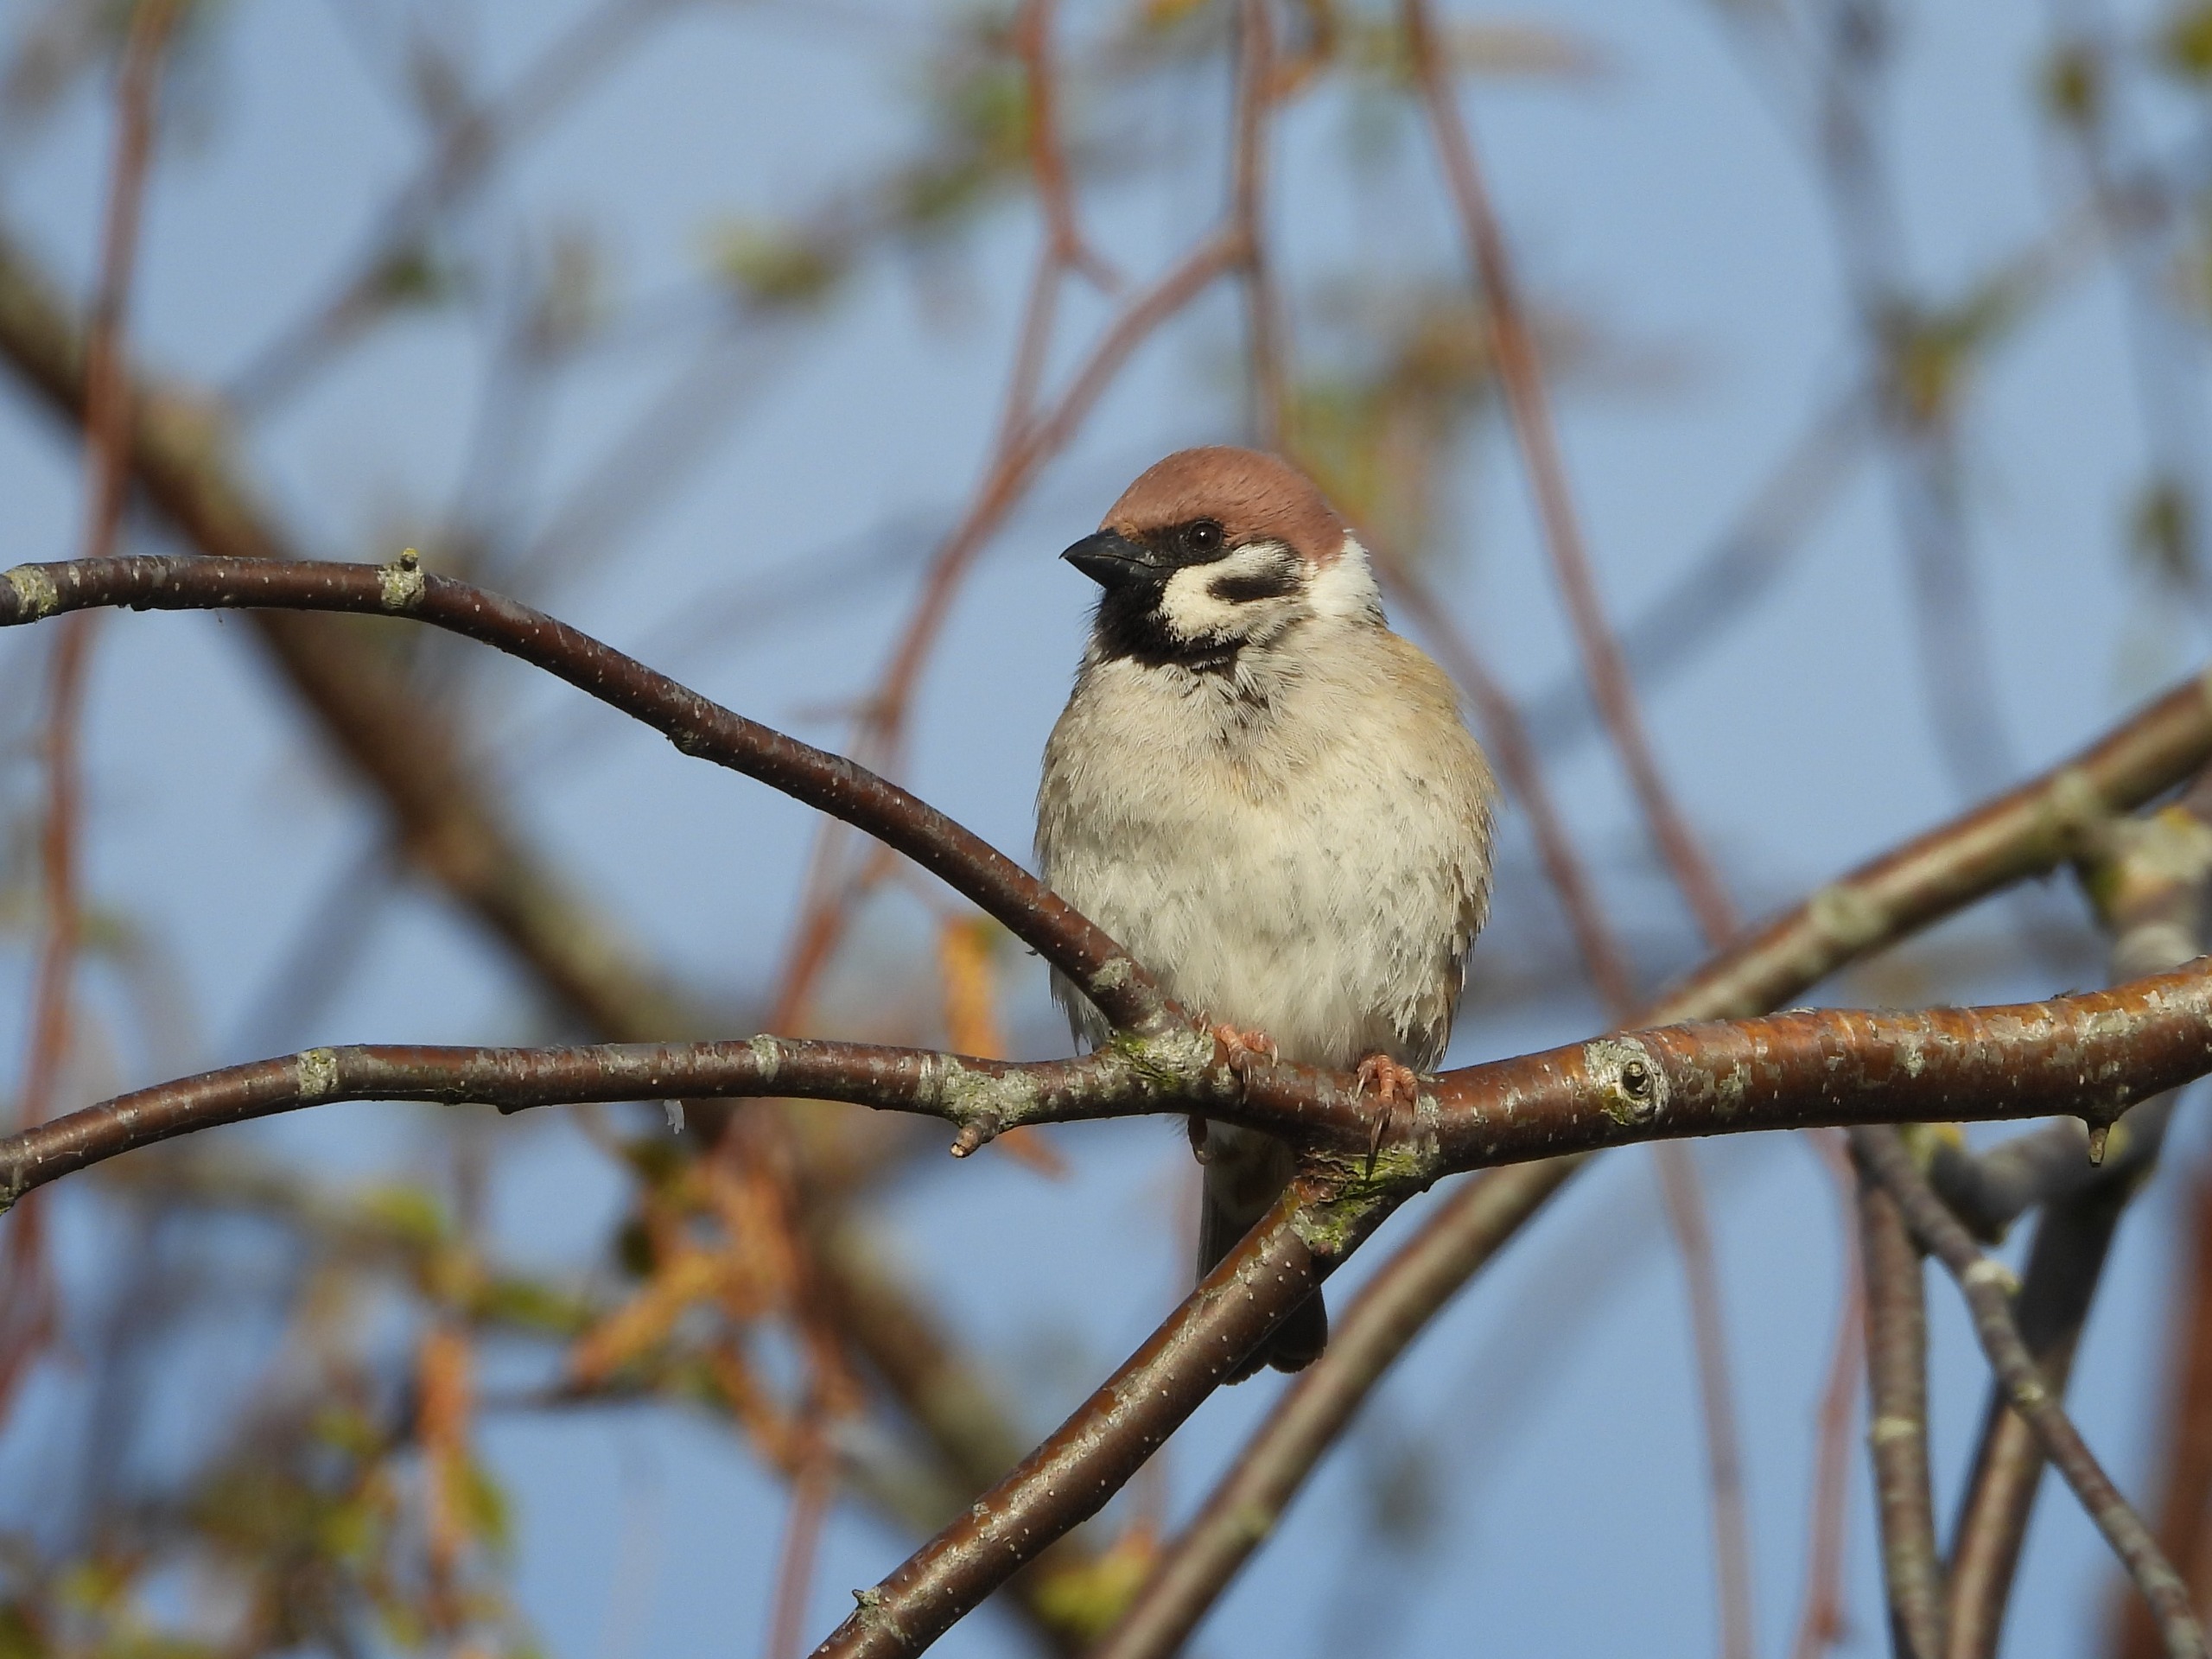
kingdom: Animalia
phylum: Chordata
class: Aves
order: Passeriformes
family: Passeridae
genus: Passer
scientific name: Passer montanus
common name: Skovspurv
